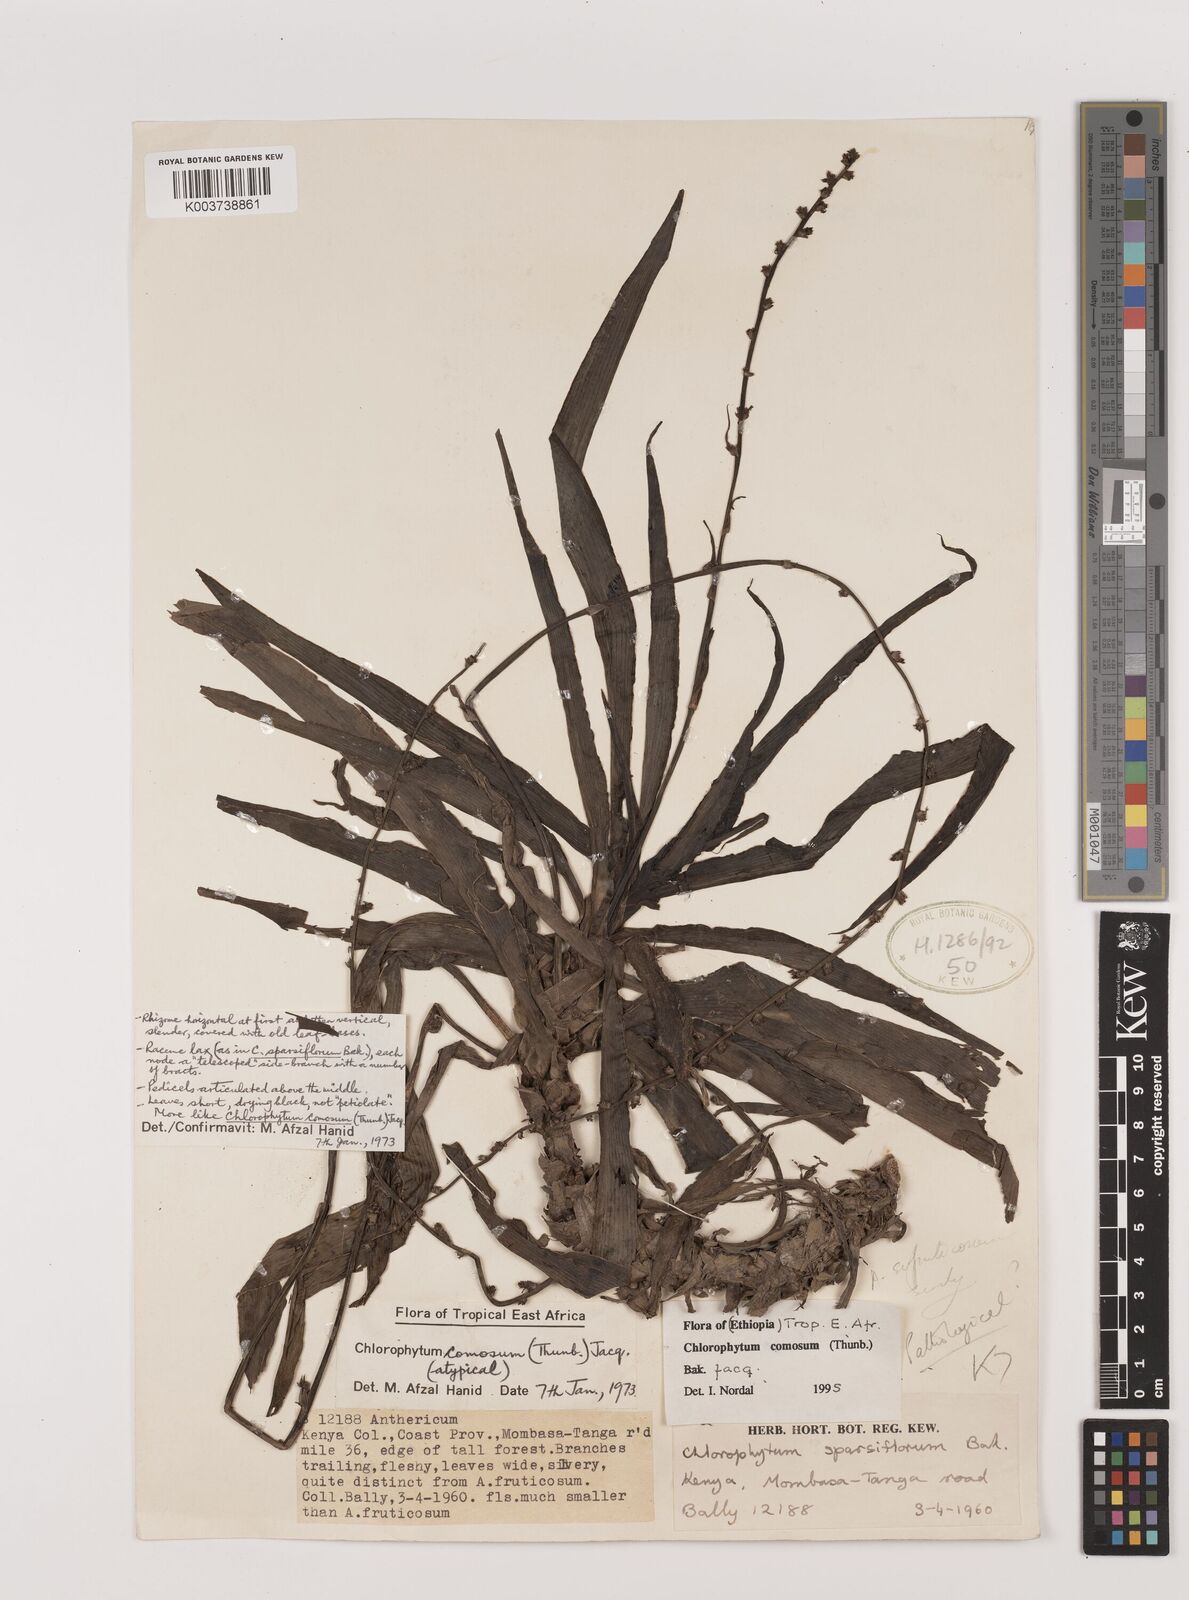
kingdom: Plantae
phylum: Tracheophyta
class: Liliopsida
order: Asparagales
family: Asparagaceae
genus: Chlorophytum
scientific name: Chlorophytum comosum
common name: Spider plant
